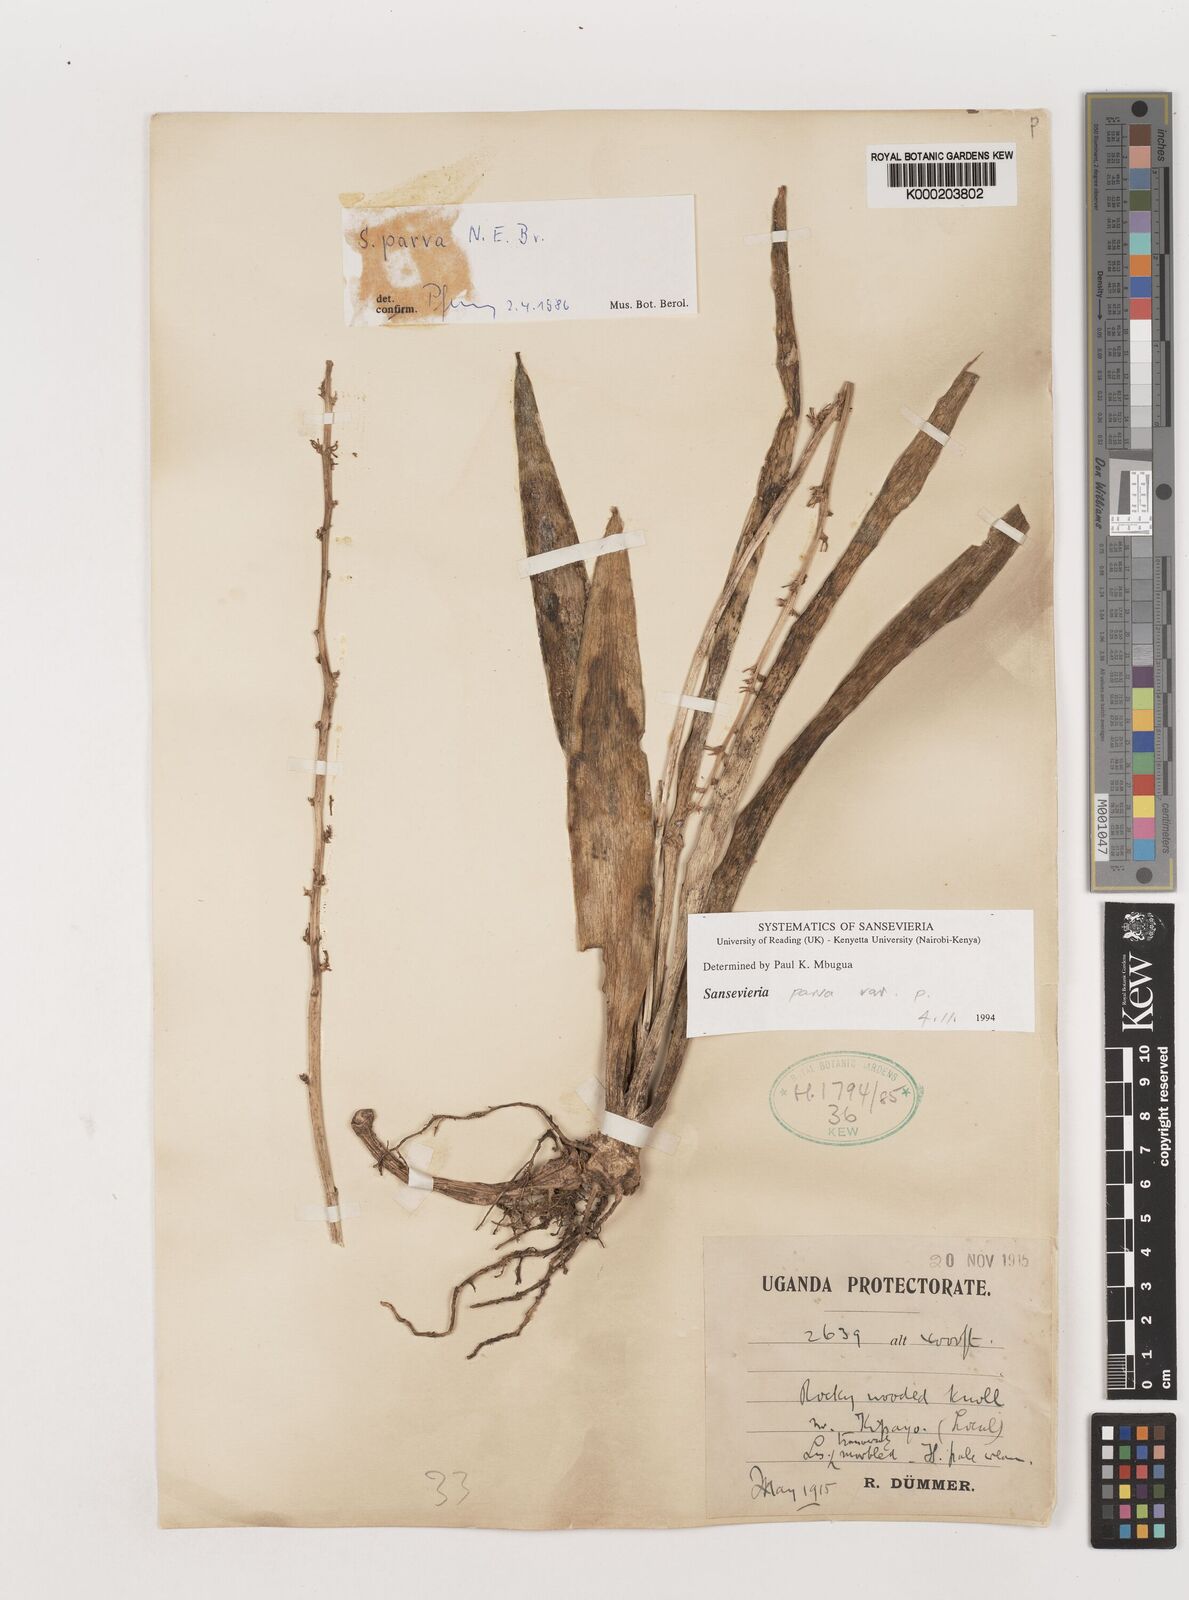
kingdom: Plantae
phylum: Tracheophyta
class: Liliopsida
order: Asparagales
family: Asparagaceae
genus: Dracaena
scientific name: Dracaena parva
